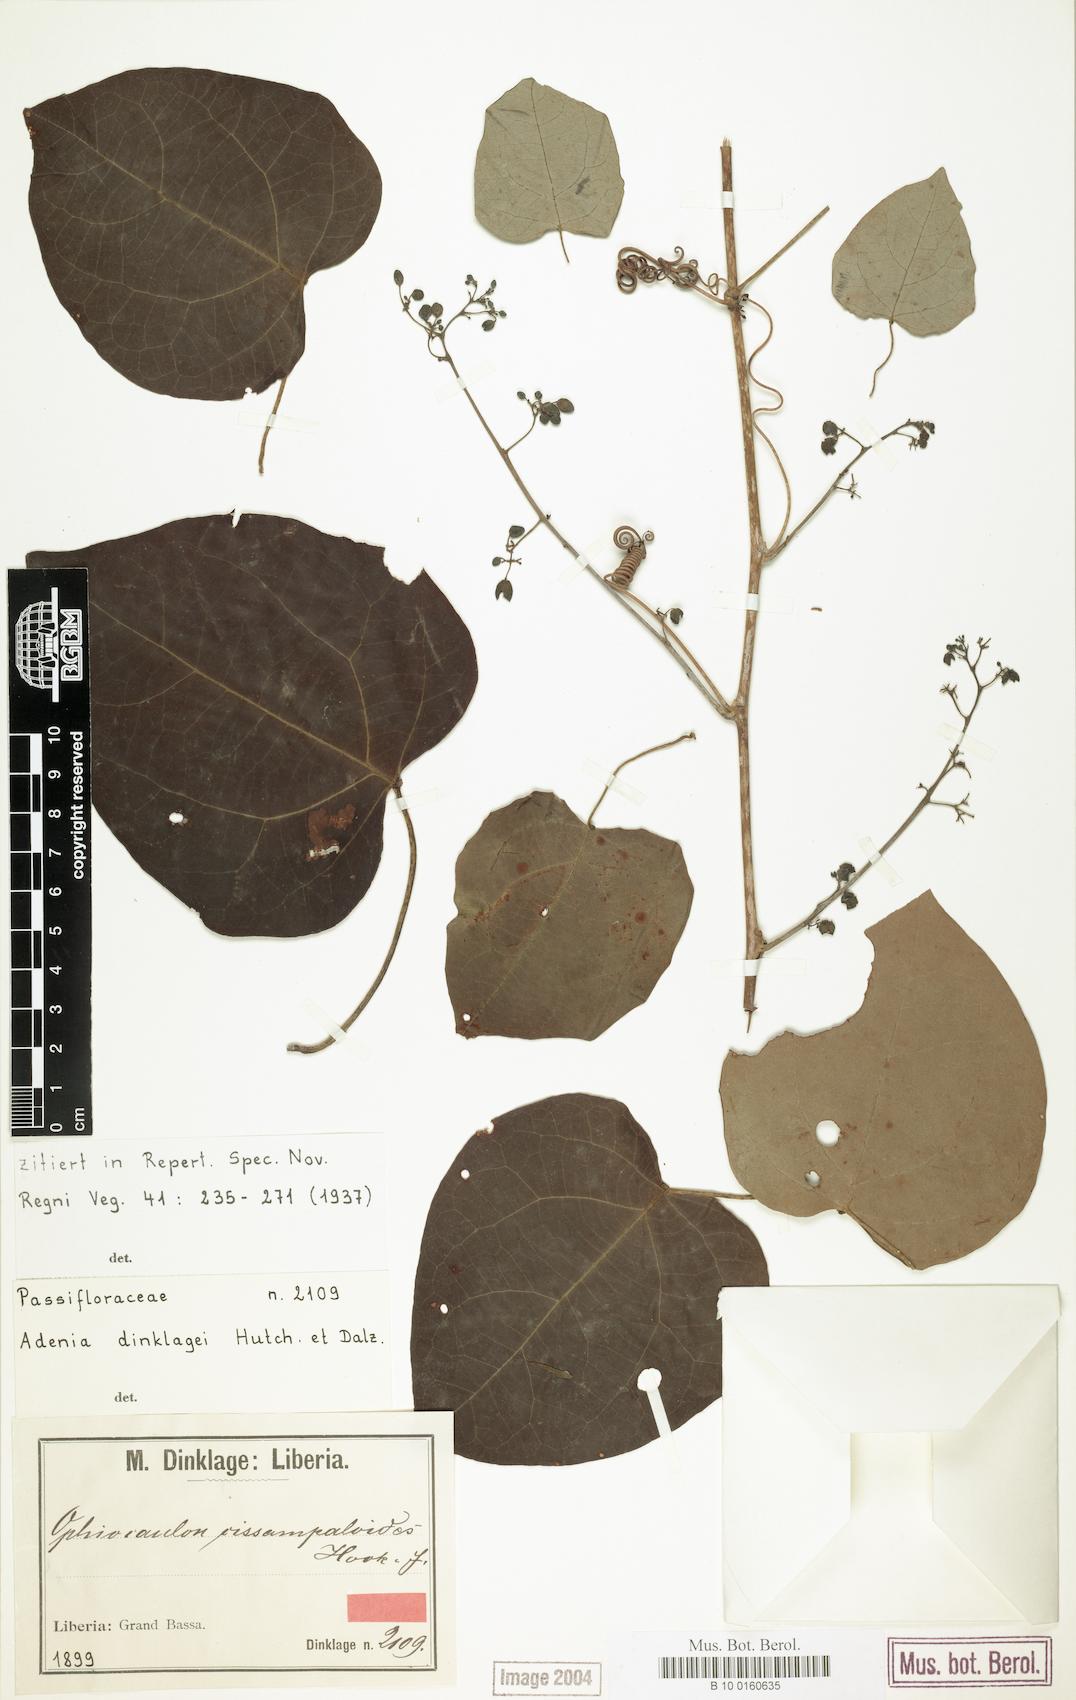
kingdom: Plantae
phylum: Tracheophyta
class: Magnoliopsida
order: Malpighiales
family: Passifloraceae
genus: Adenia
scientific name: Adenia dinklagei
